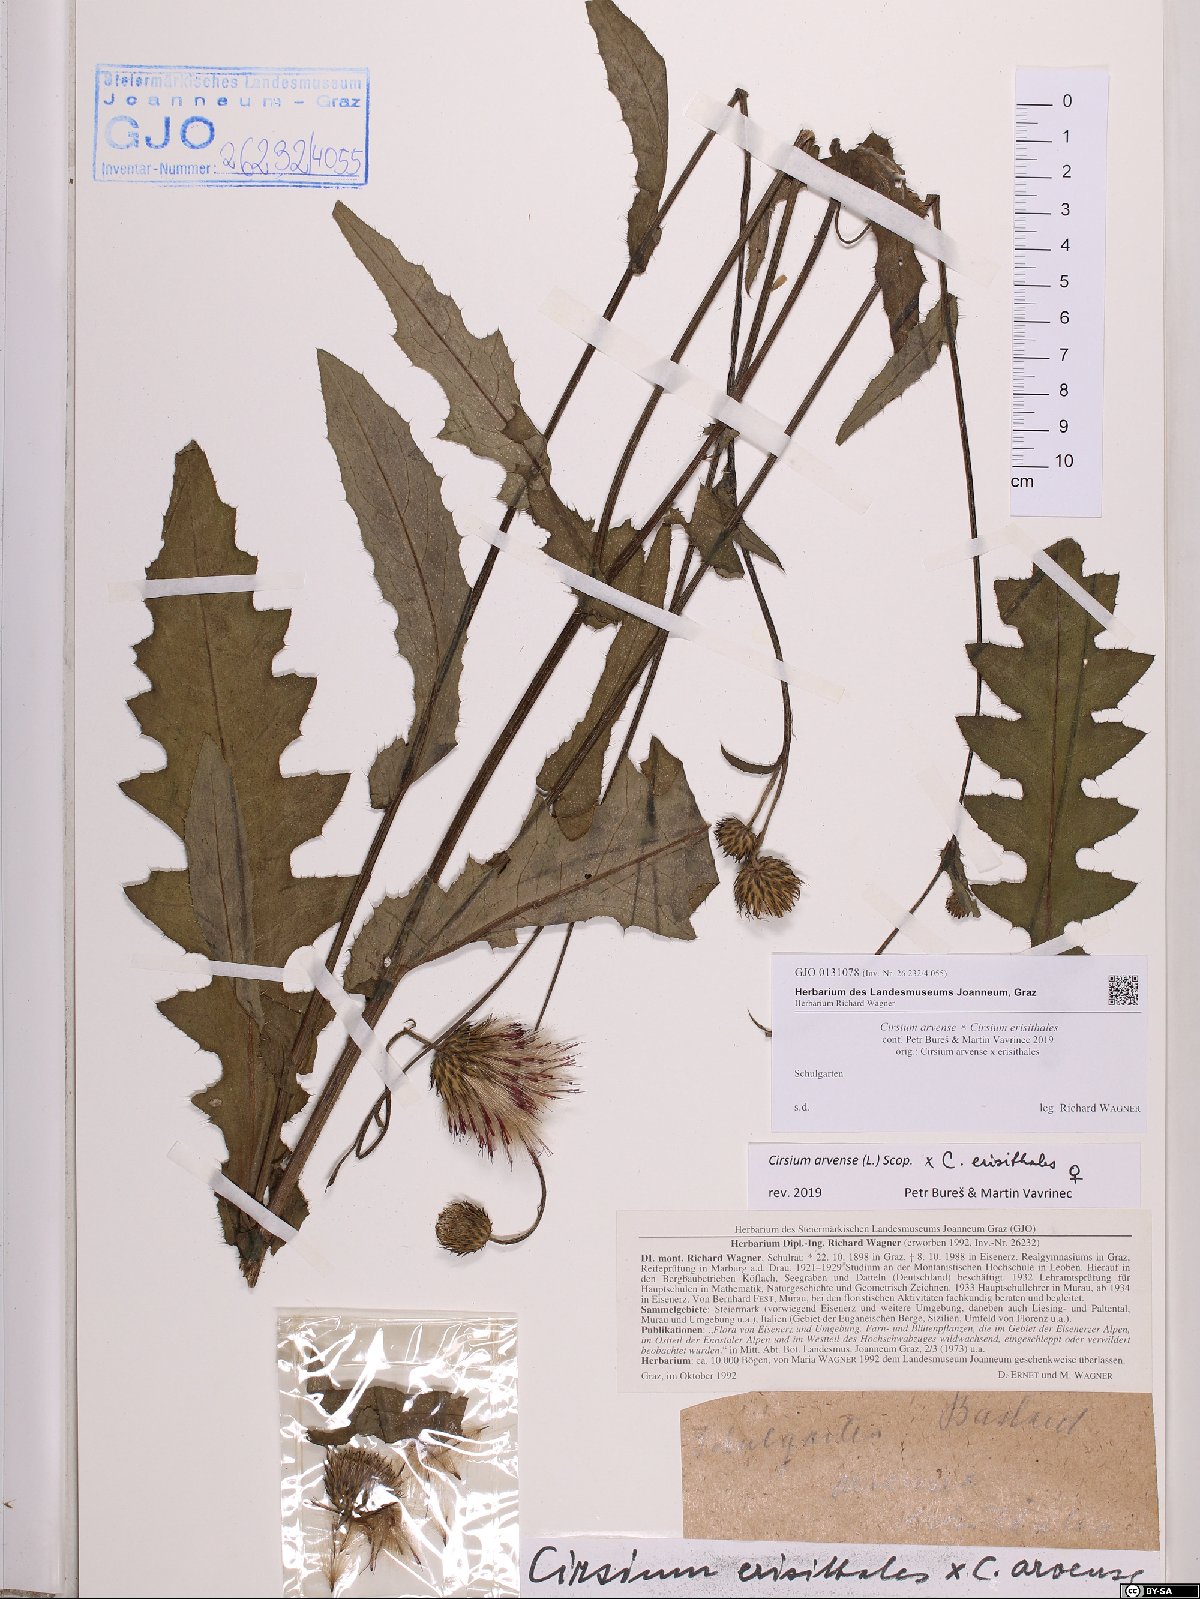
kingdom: Plantae
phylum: Tracheophyta
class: Magnoliopsida
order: Asterales
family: Asteraceae
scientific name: Asteraceae
